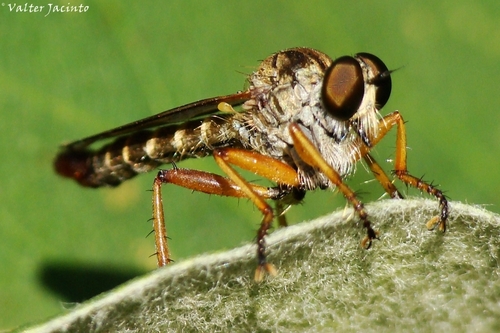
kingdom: Animalia
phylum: Arthropoda
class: Insecta
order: Diptera
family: Asilidae
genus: Neomochtherus
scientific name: Neomochtherus
